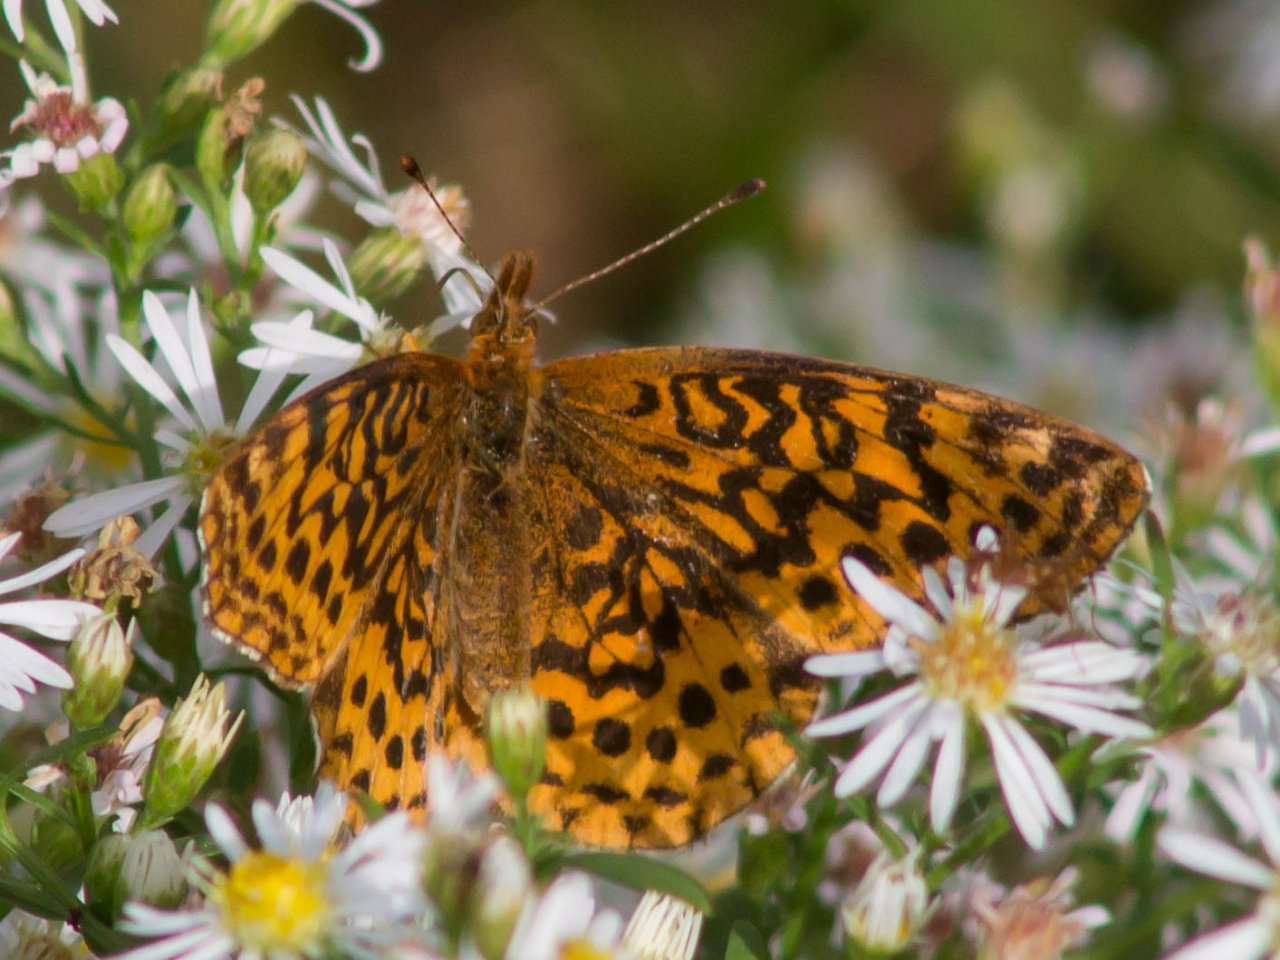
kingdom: Animalia
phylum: Arthropoda
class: Insecta
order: Lepidoptera
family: Nymphalidae
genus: Clossiana
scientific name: Clossiana toddi
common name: Meadow Fritillary
